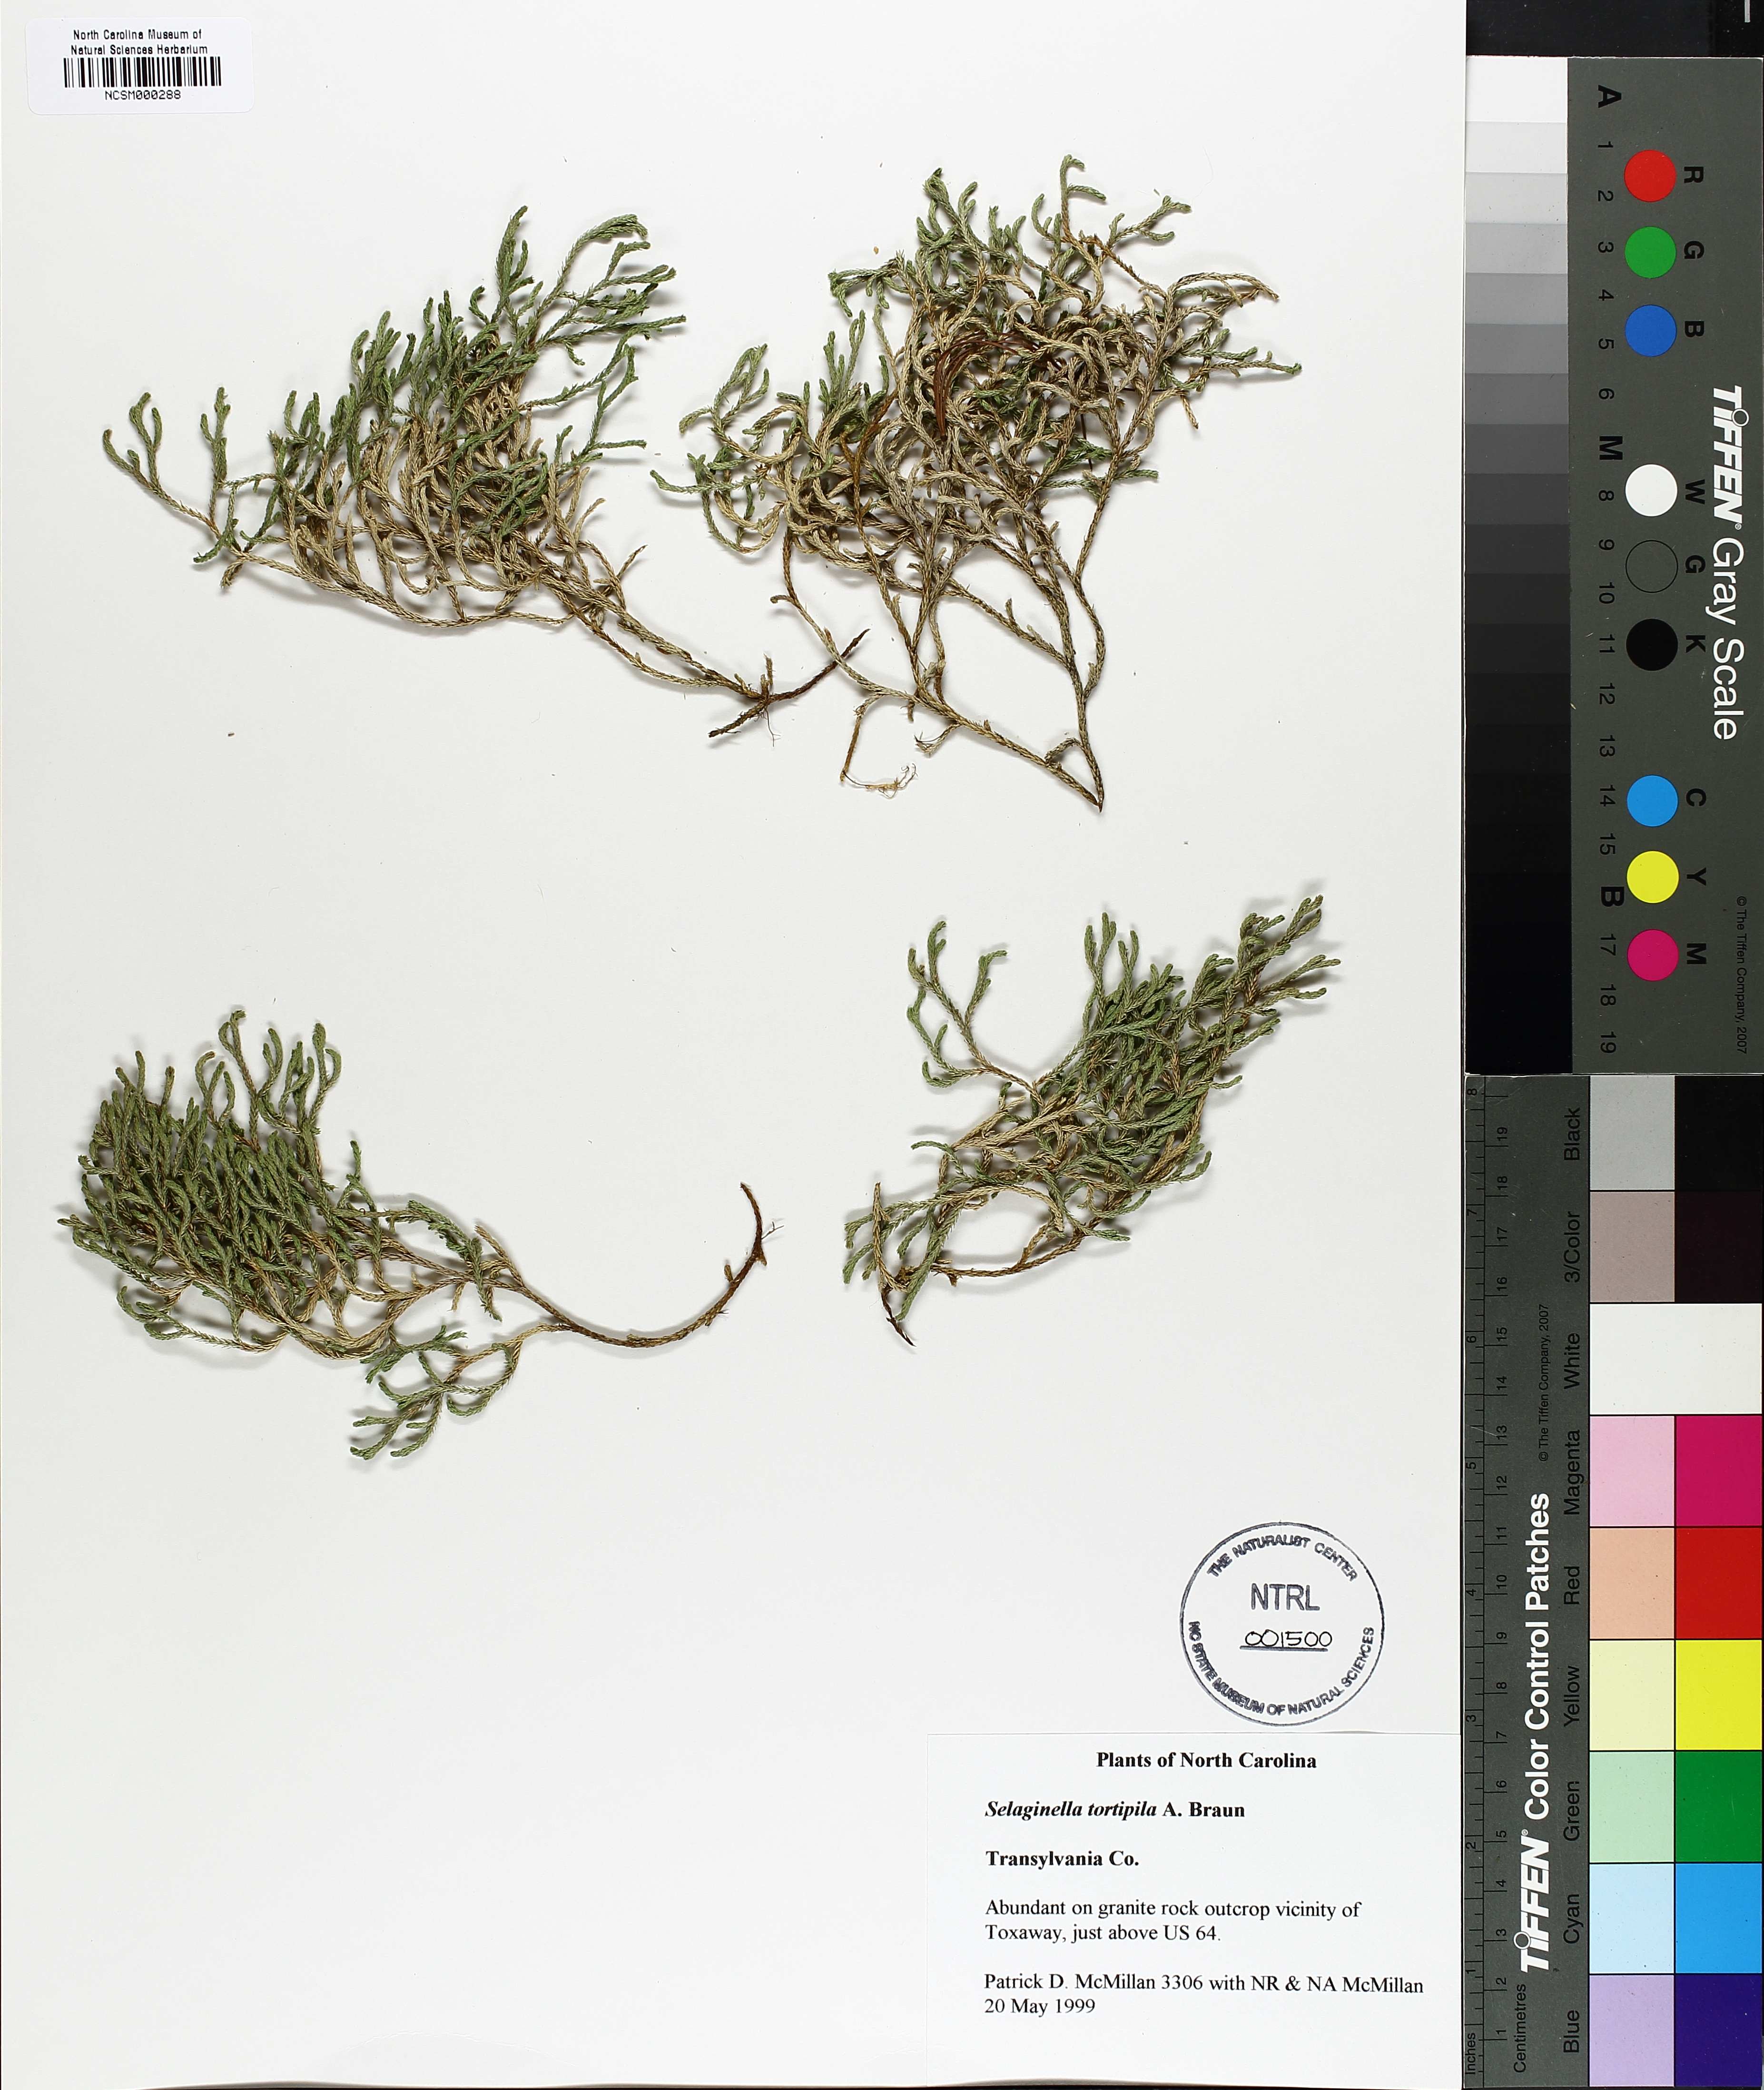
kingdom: Plantae
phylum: Tracheophyta
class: Lycopodiopsida
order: Selaginellales
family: Selaginellaceae
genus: Selaginella
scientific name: Selaginella tortipila
